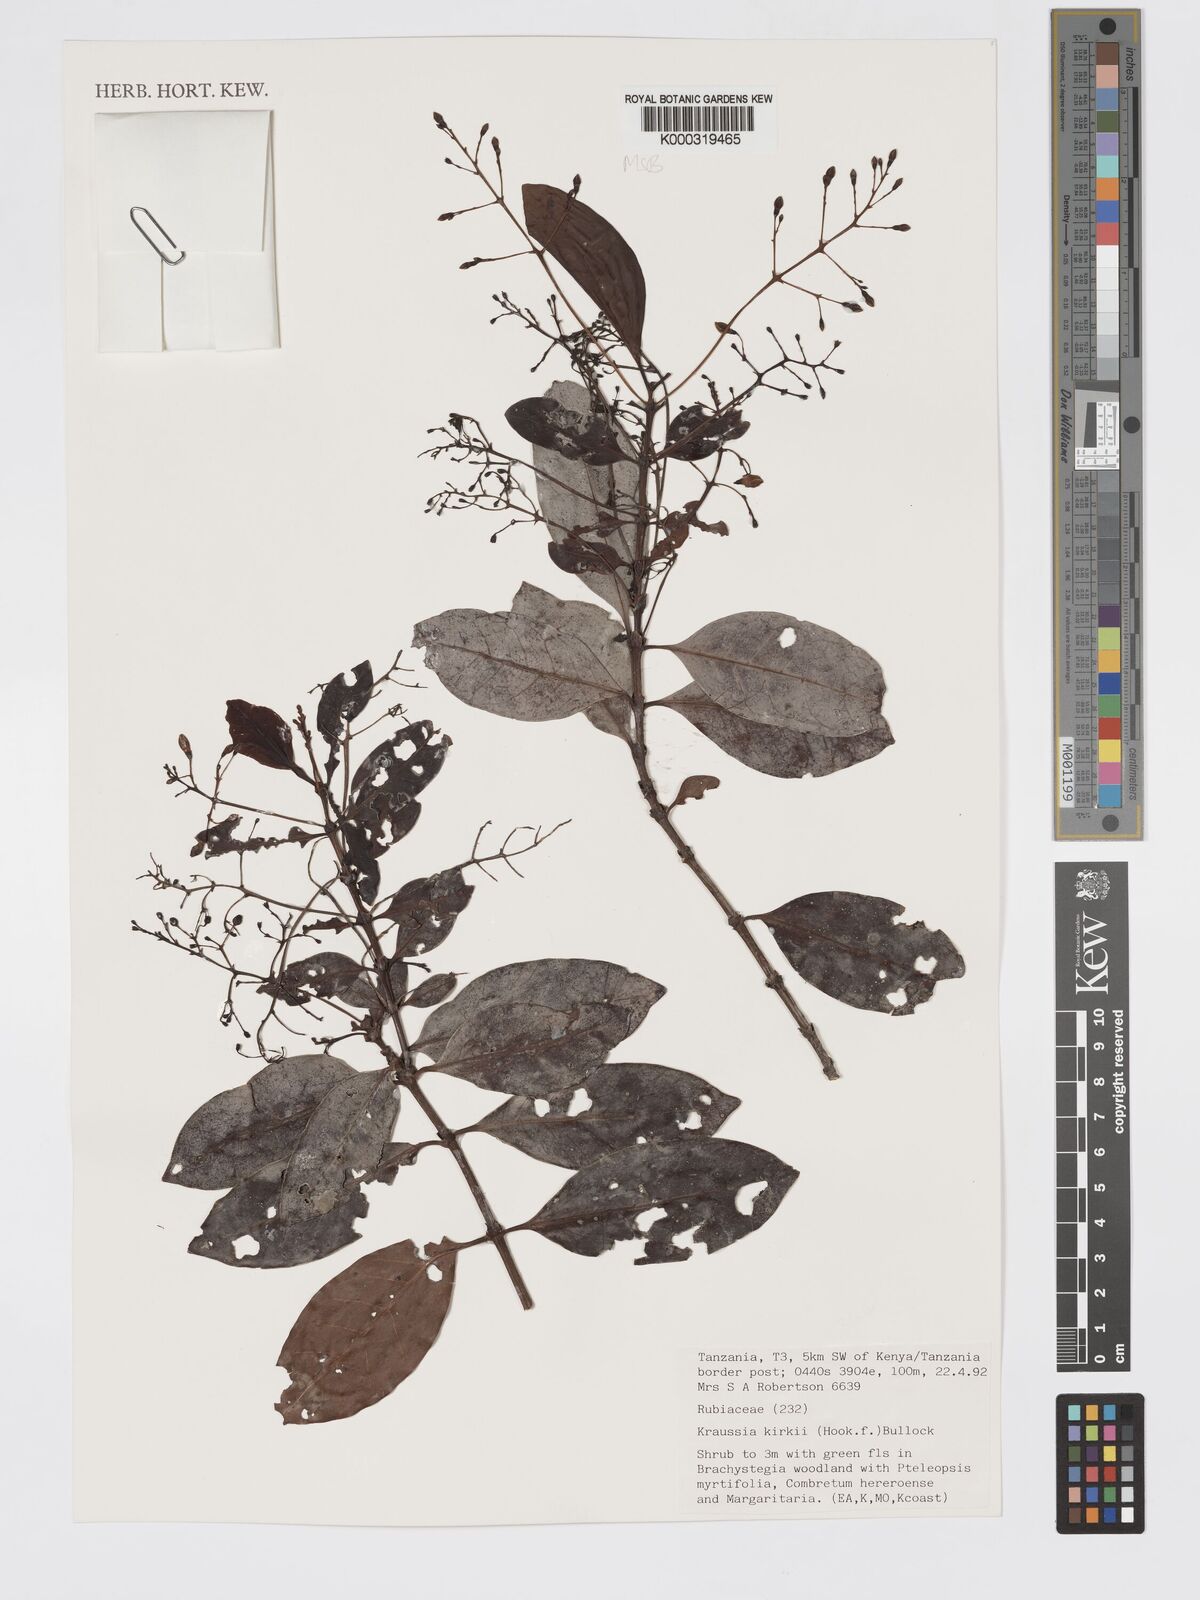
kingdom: Plantae
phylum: Tracheophyta
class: Magnoliopsida
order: Gentianales
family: Rubiaceae
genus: Kraussia
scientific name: Kraussia kirkii
